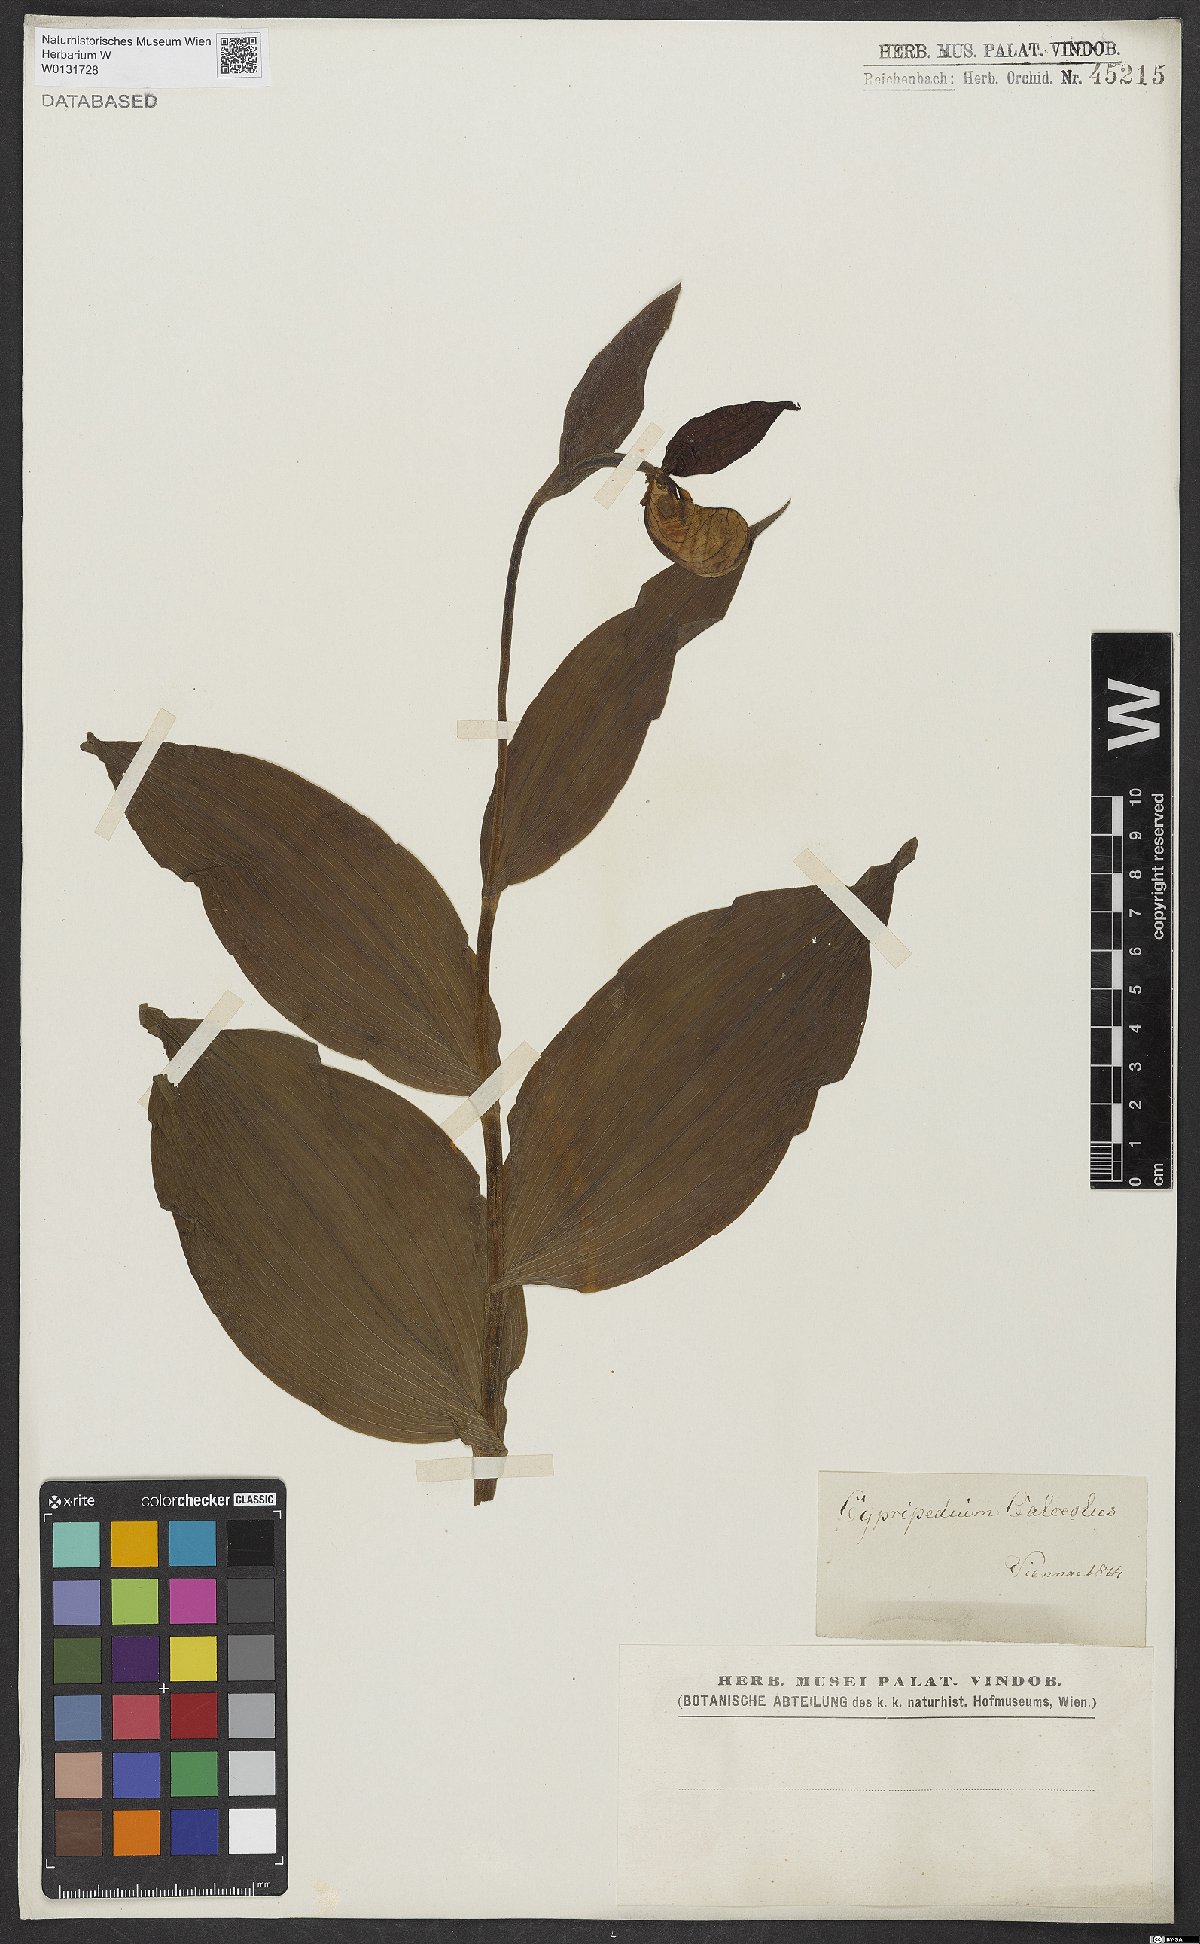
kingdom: Plantae
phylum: Tracheophyta
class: Liliopsida
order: Asparagales
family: Orchidaceae
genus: Cypripedium
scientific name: Cypripedium calceolus
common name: Lady's-slipper
